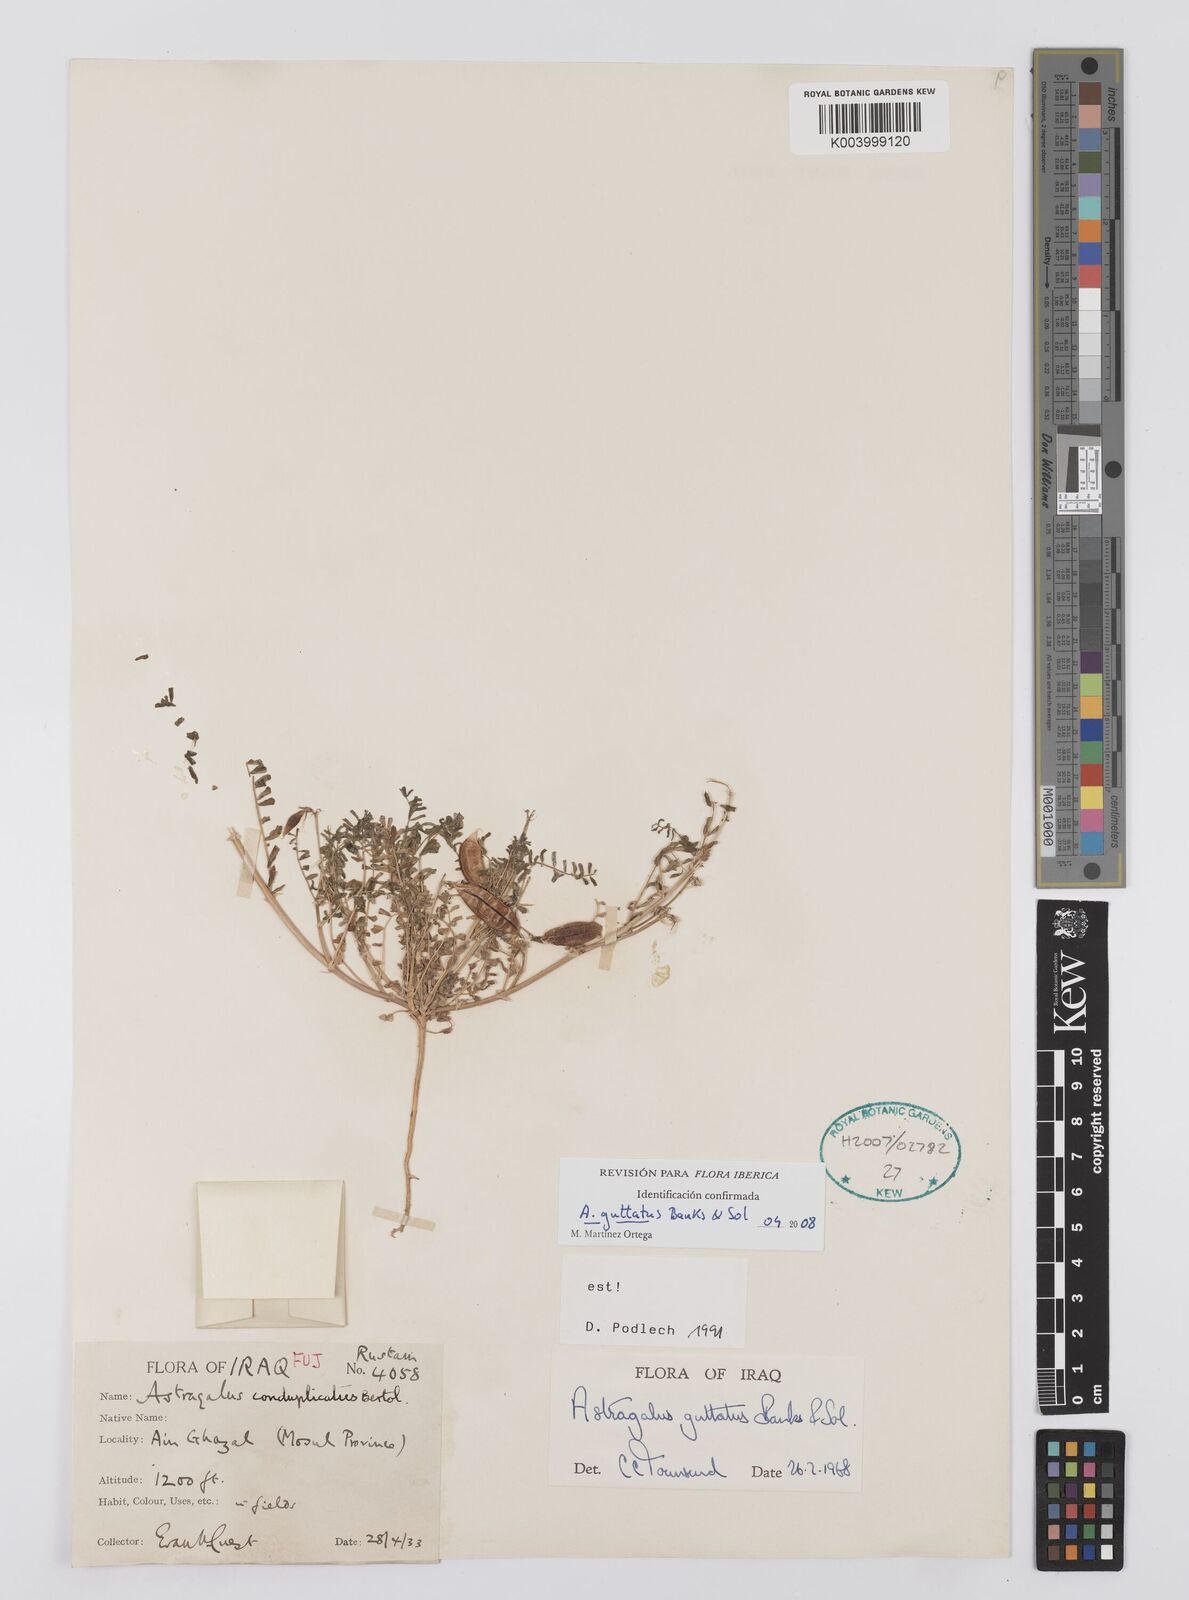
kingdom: Plantae
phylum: Tracheophyta
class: Magnoliopsida
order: Fabales
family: Fabaceae
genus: Astragalus
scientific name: Astragalus guttatus
